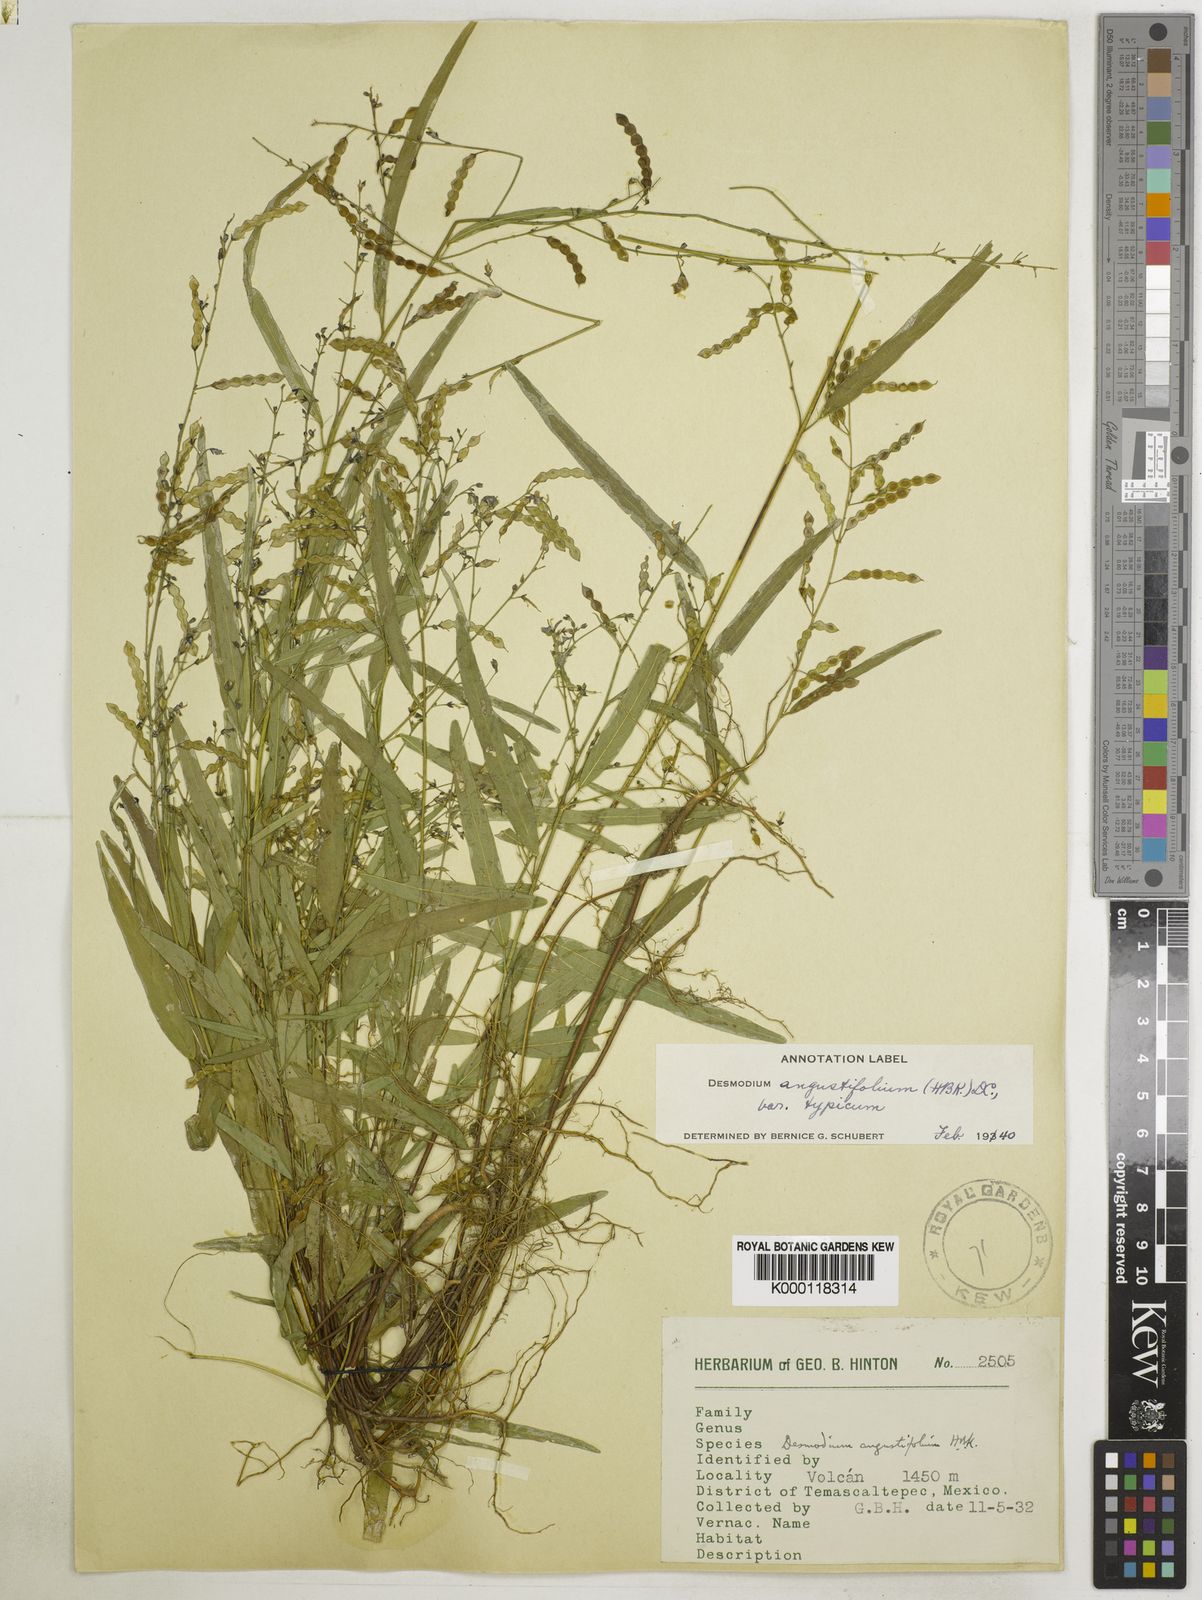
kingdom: Plantae
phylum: Tracheophyta
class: Magnoliopsida
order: Fabales
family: Fabaceae
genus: Desmodium
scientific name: Desmodium angustifolium
